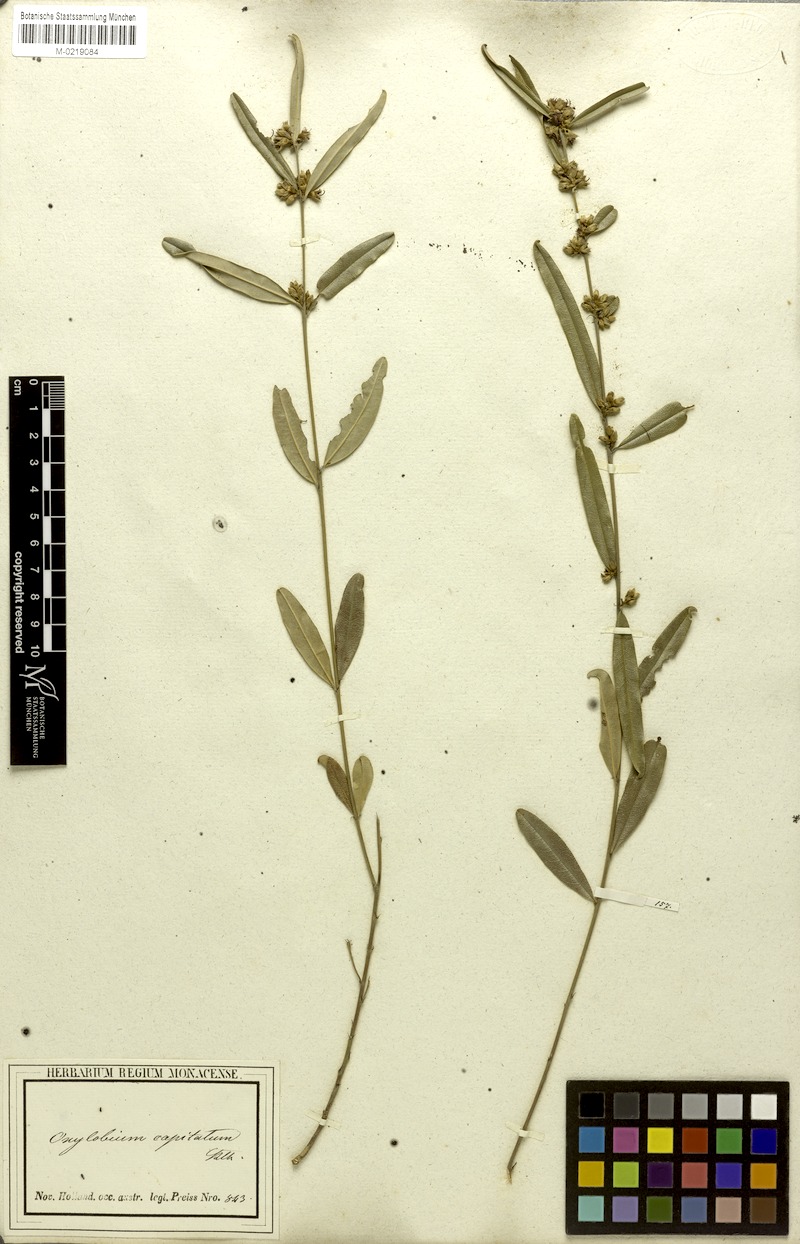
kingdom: Plantae
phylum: Tracheophyta
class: Magnoliopsida
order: Fabales
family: Fabaceae
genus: Gastrolobium
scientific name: Gastrolobium linearifolium
